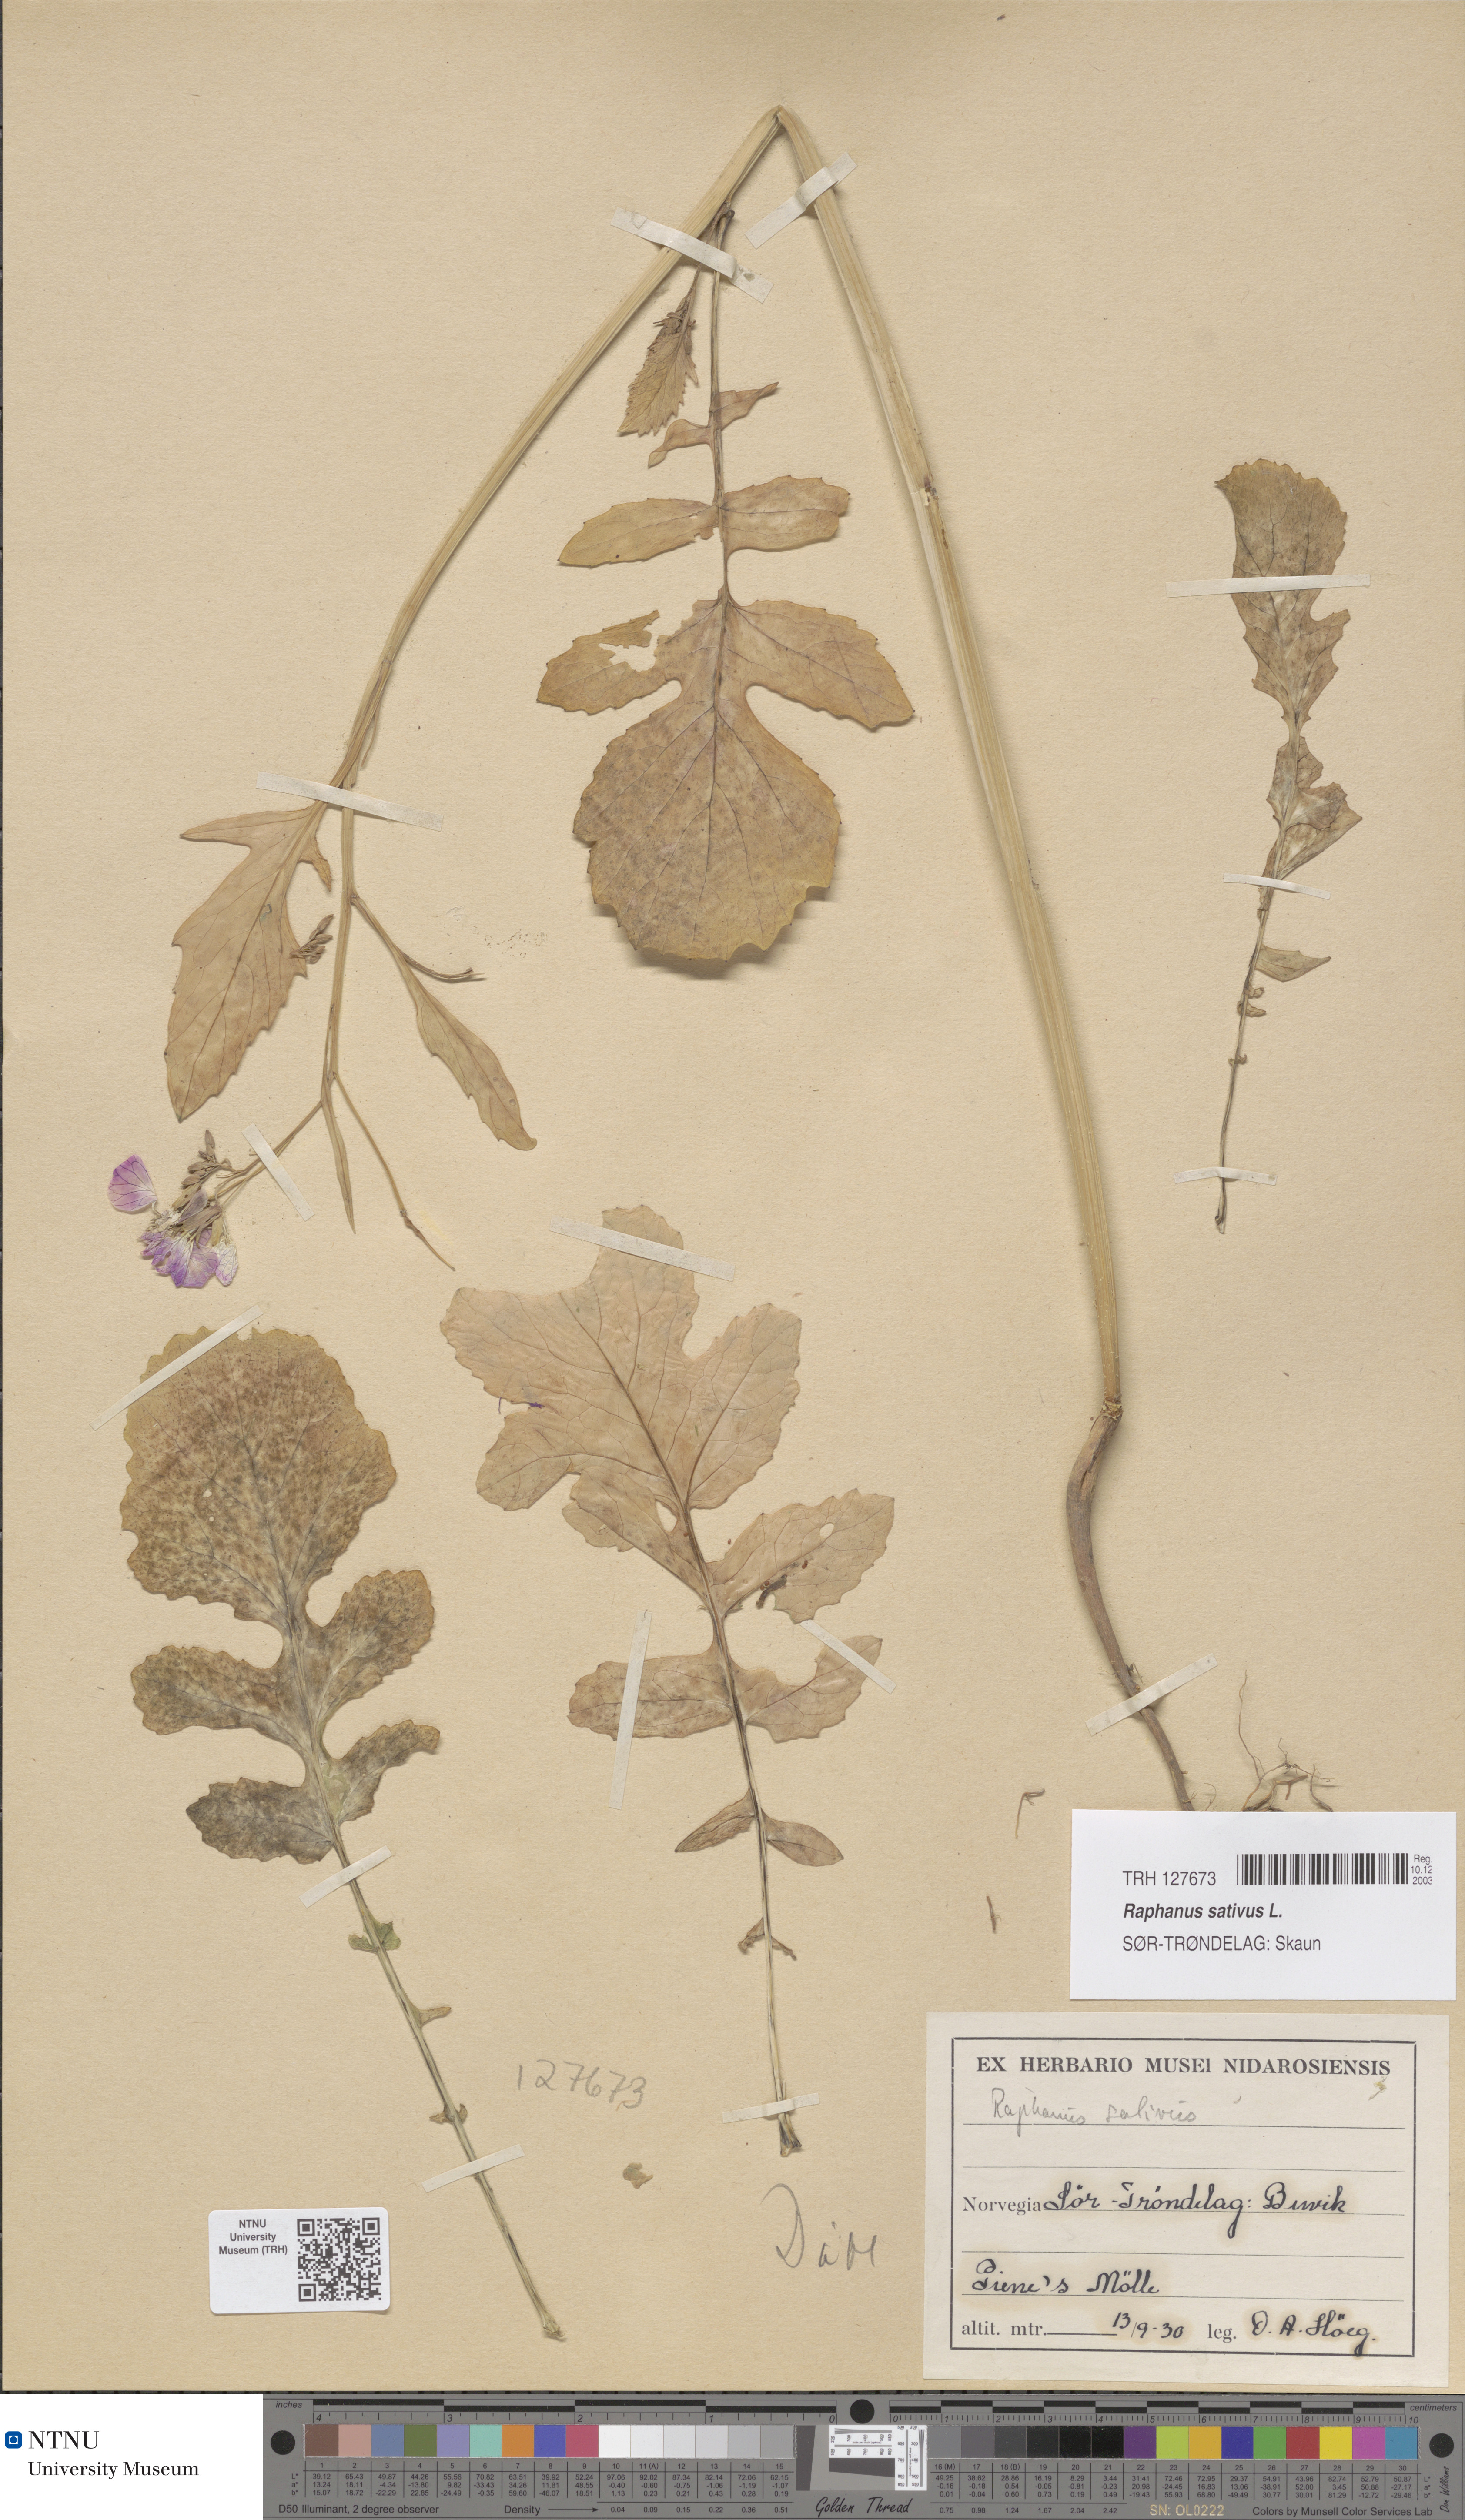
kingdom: Plantae
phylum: Tracheophyta
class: Magnoliopsida
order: Brassicales
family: Brassicaceae
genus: Raphanus
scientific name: Raphanus sativus
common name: Cultivated radish
